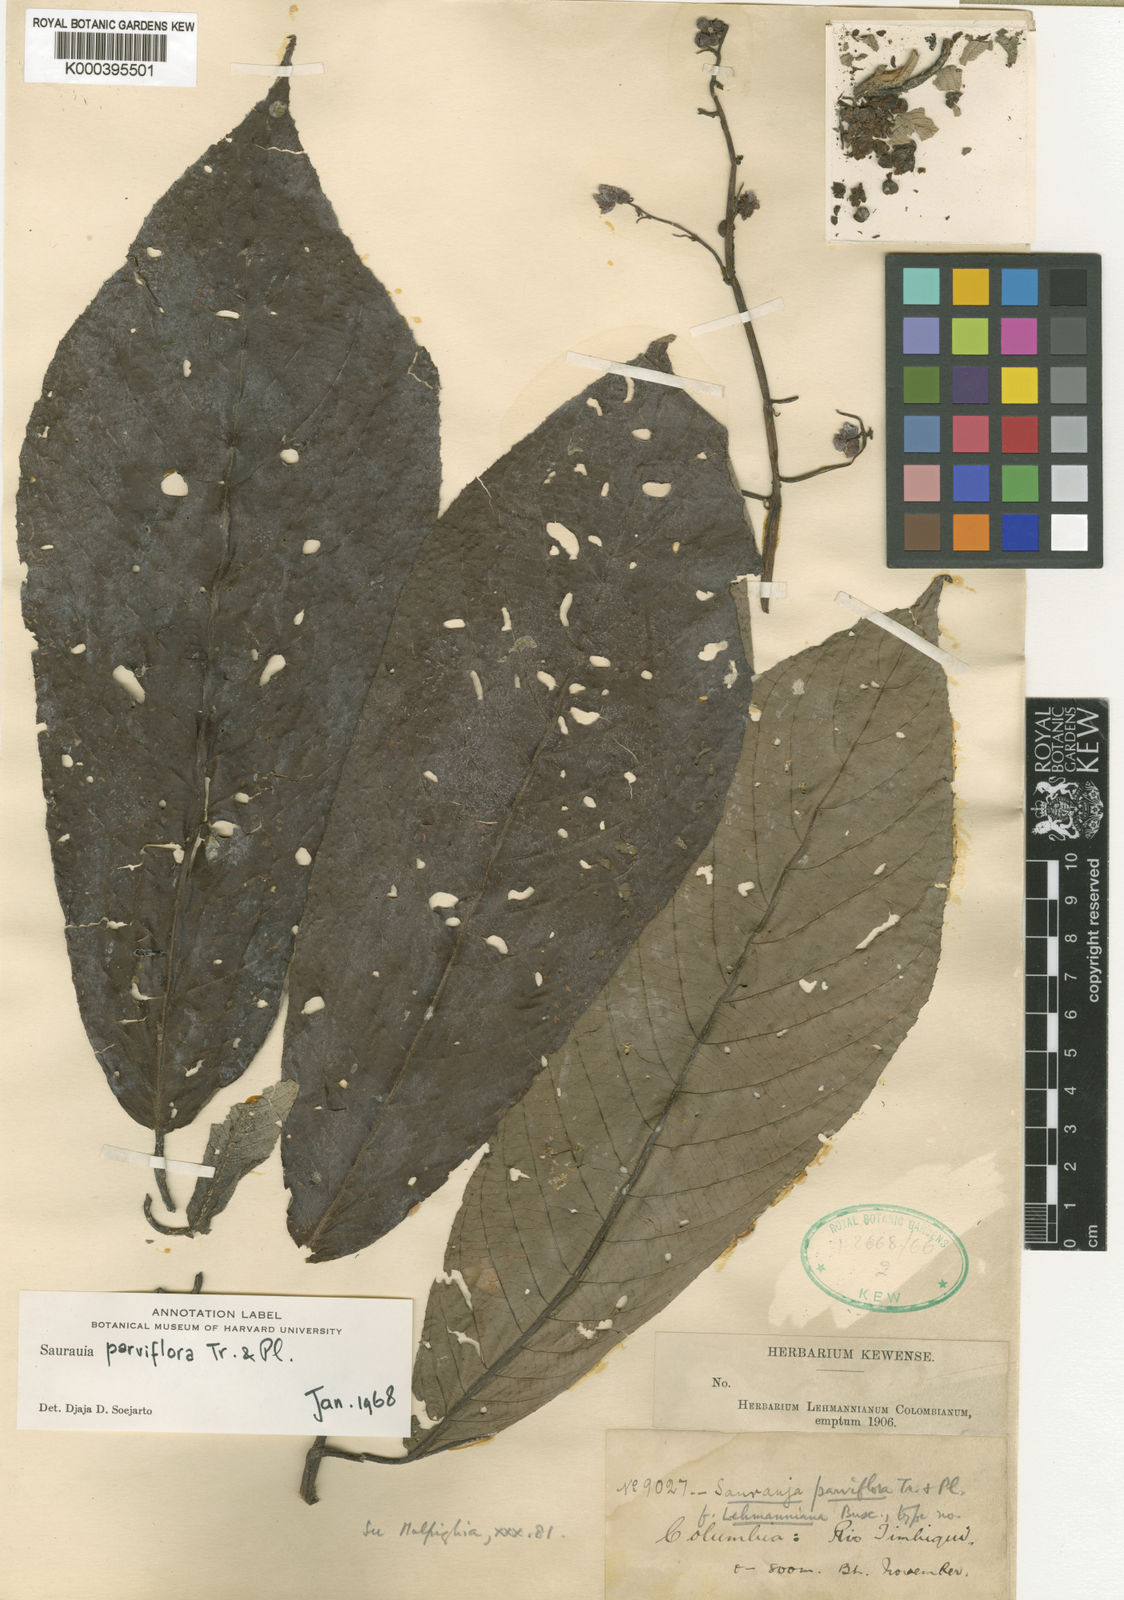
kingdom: Plantae
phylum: Tracheophyta
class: Magnoliopsida
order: Ericales
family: Actinidiaceae
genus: Saurauia
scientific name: Saurauia parviflora
